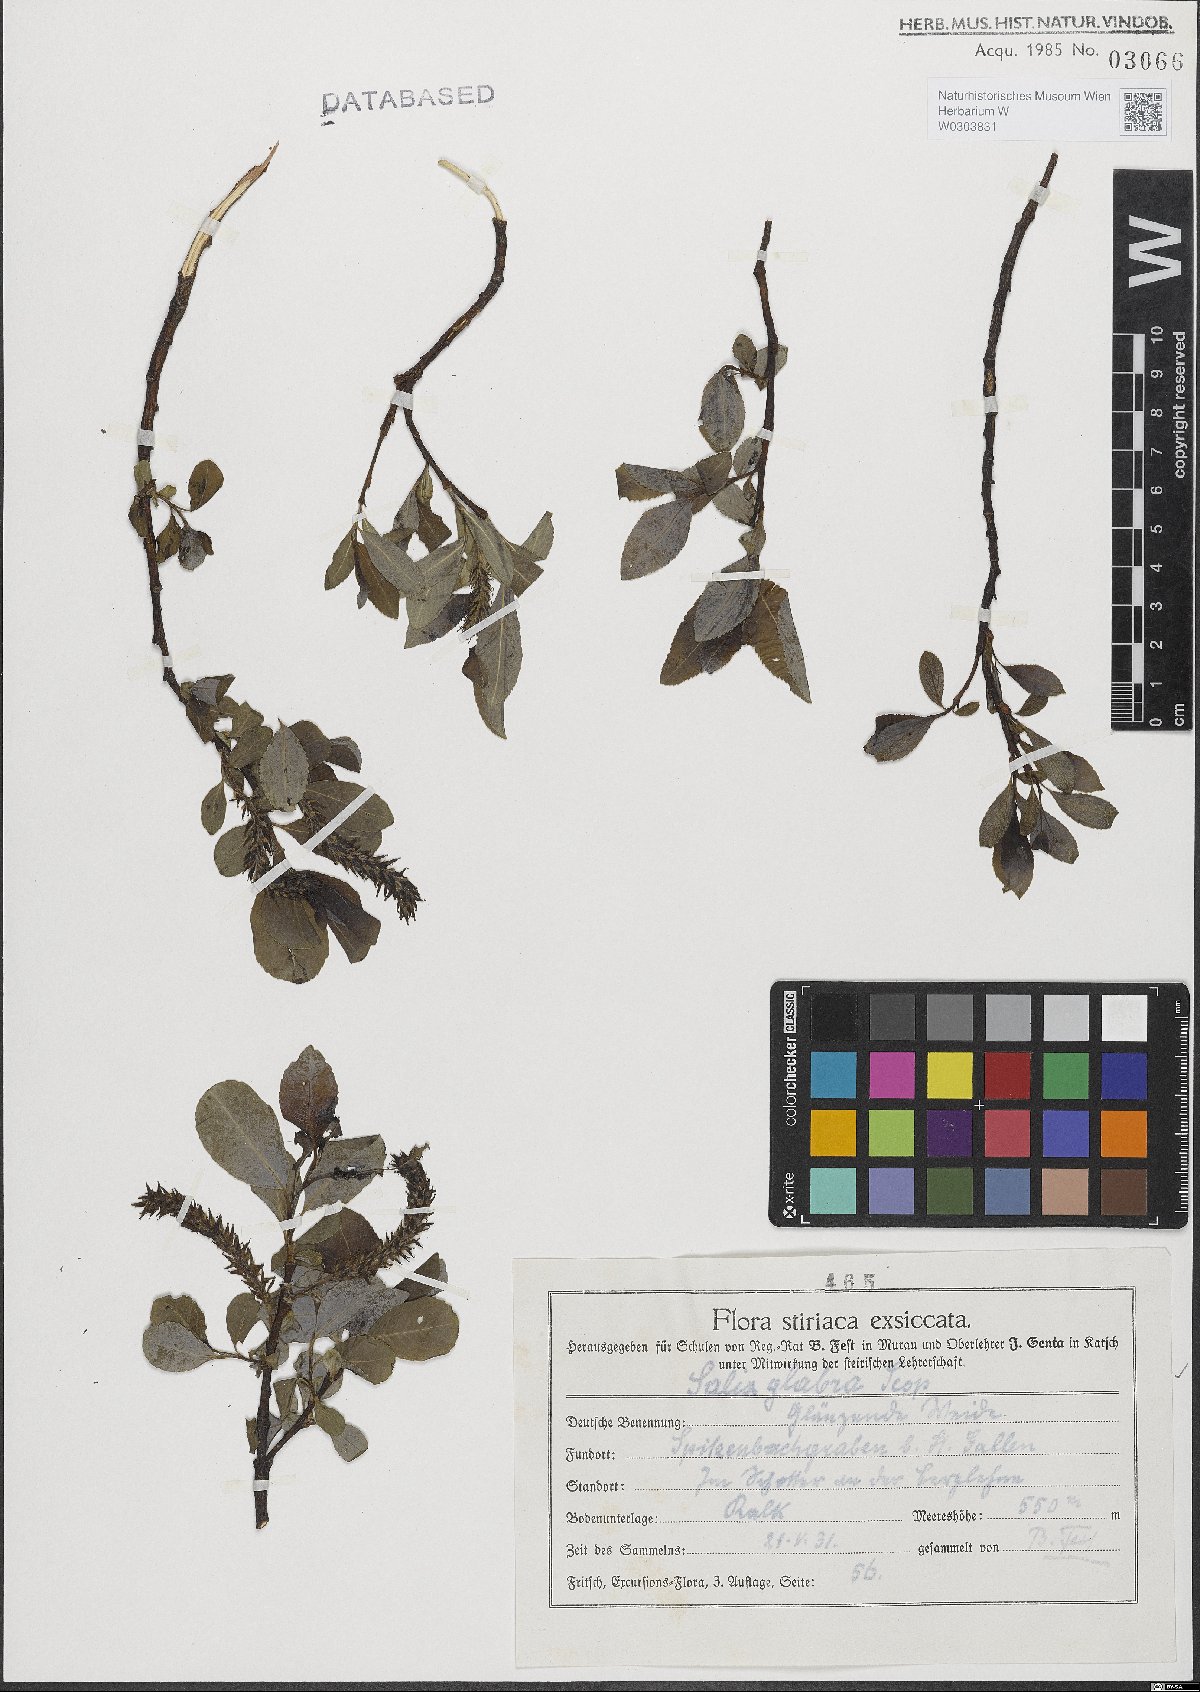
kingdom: Plantae
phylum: Tracheophyta
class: Magnoliopsida
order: Malpighiales
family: Salicaceae
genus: Salix
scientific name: Salix glabra
